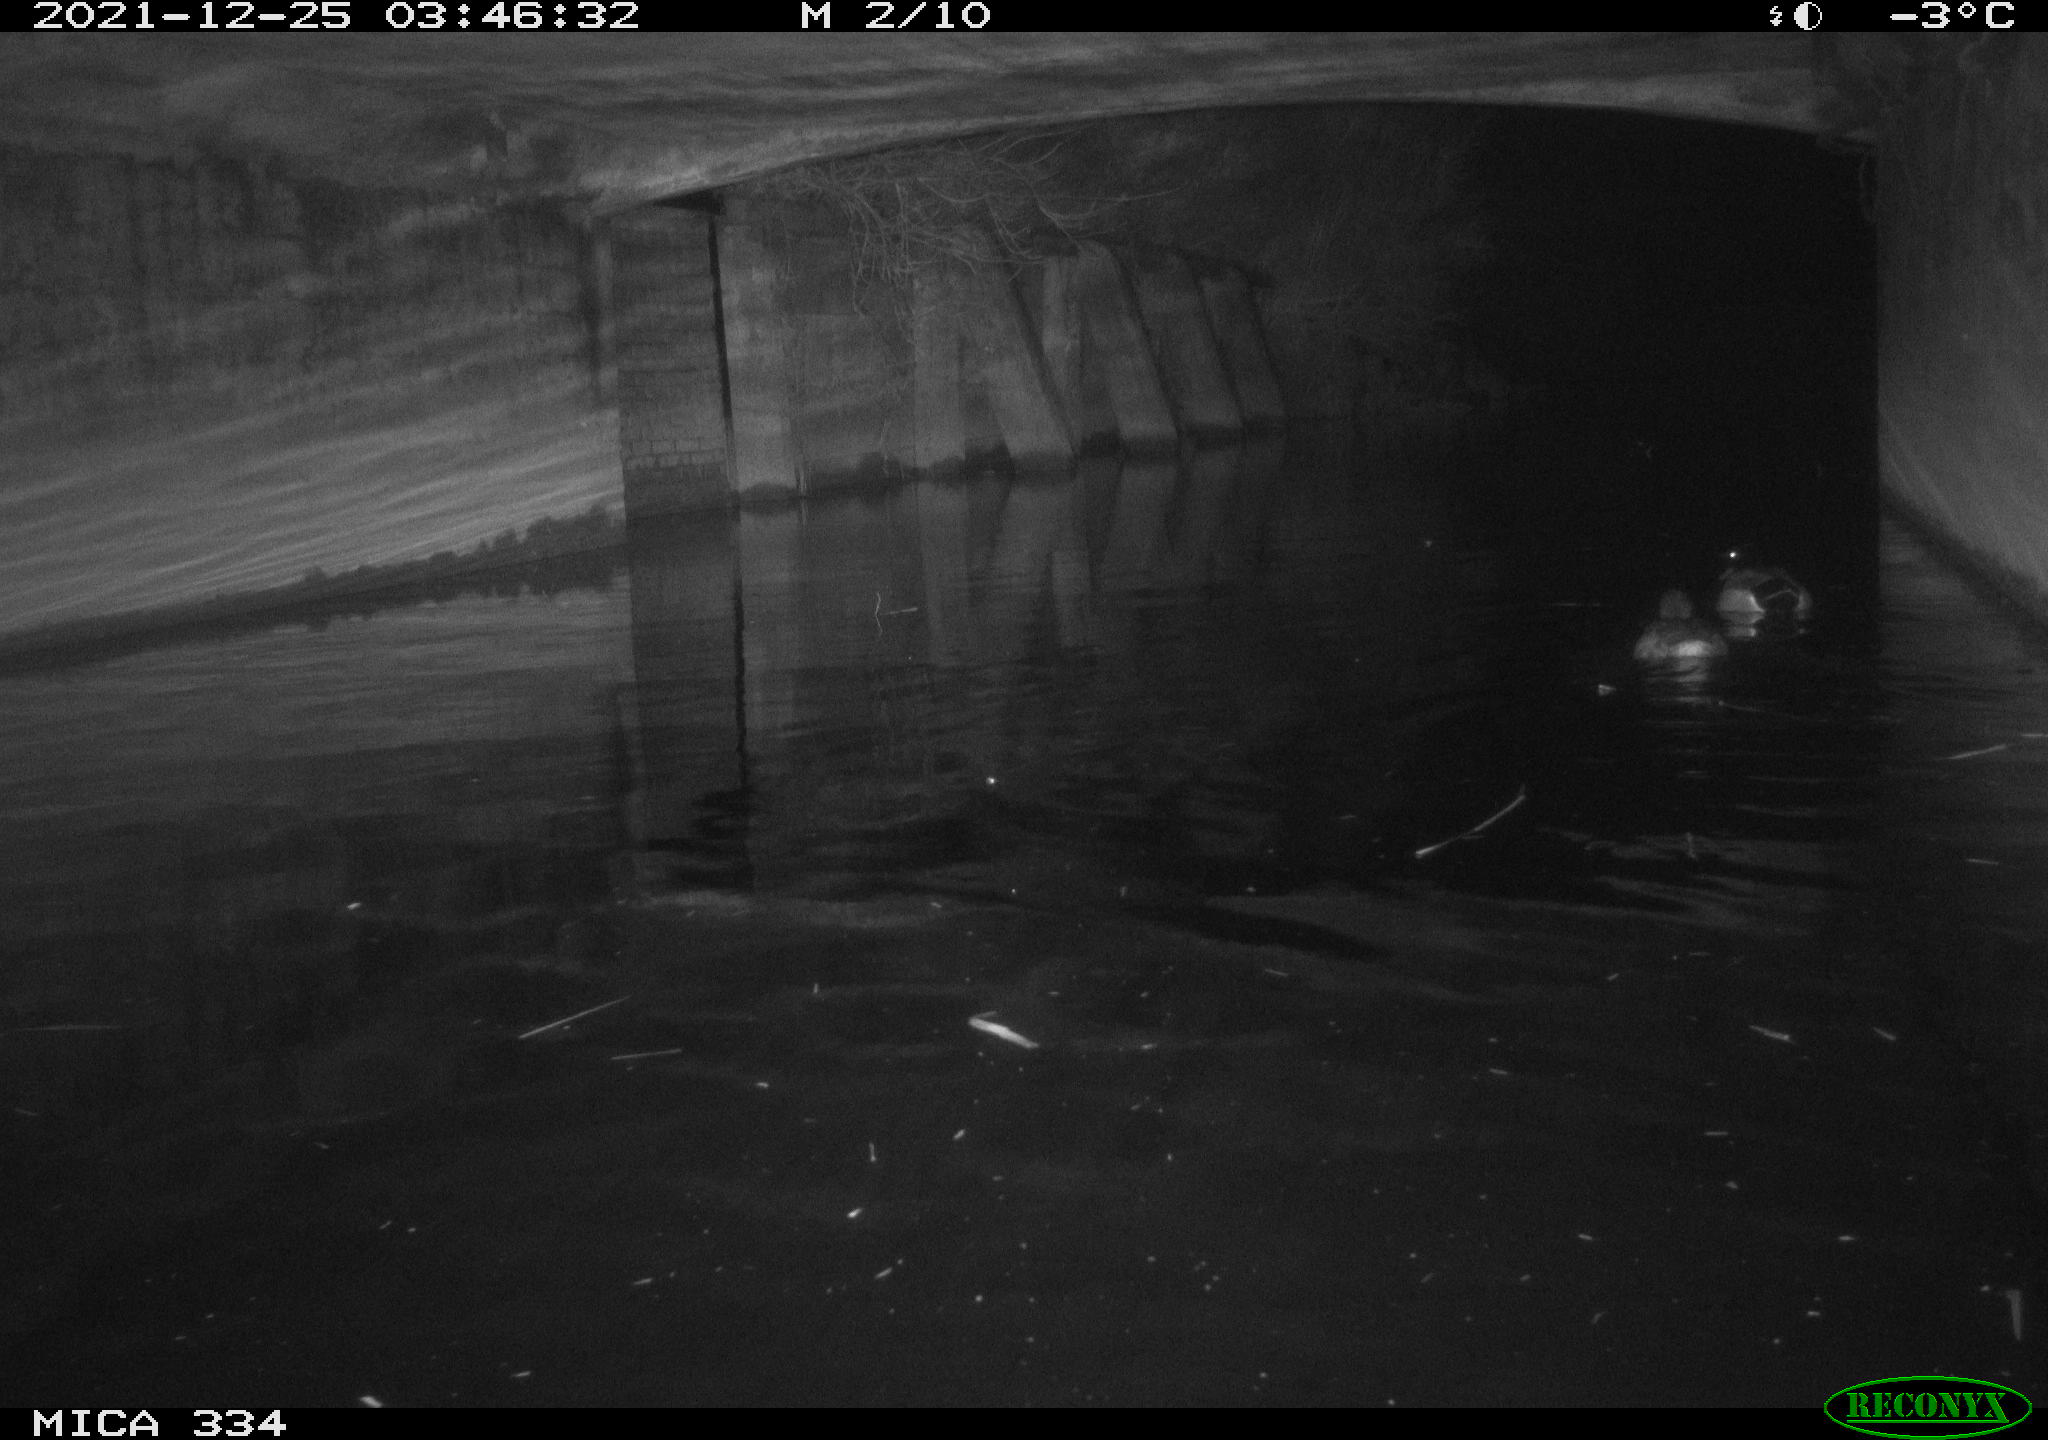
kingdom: Animalia
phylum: Chordata
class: Aves
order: Anseriformes
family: Anatidae
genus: Anas
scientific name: Anas platyrhynchos
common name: Mallard
